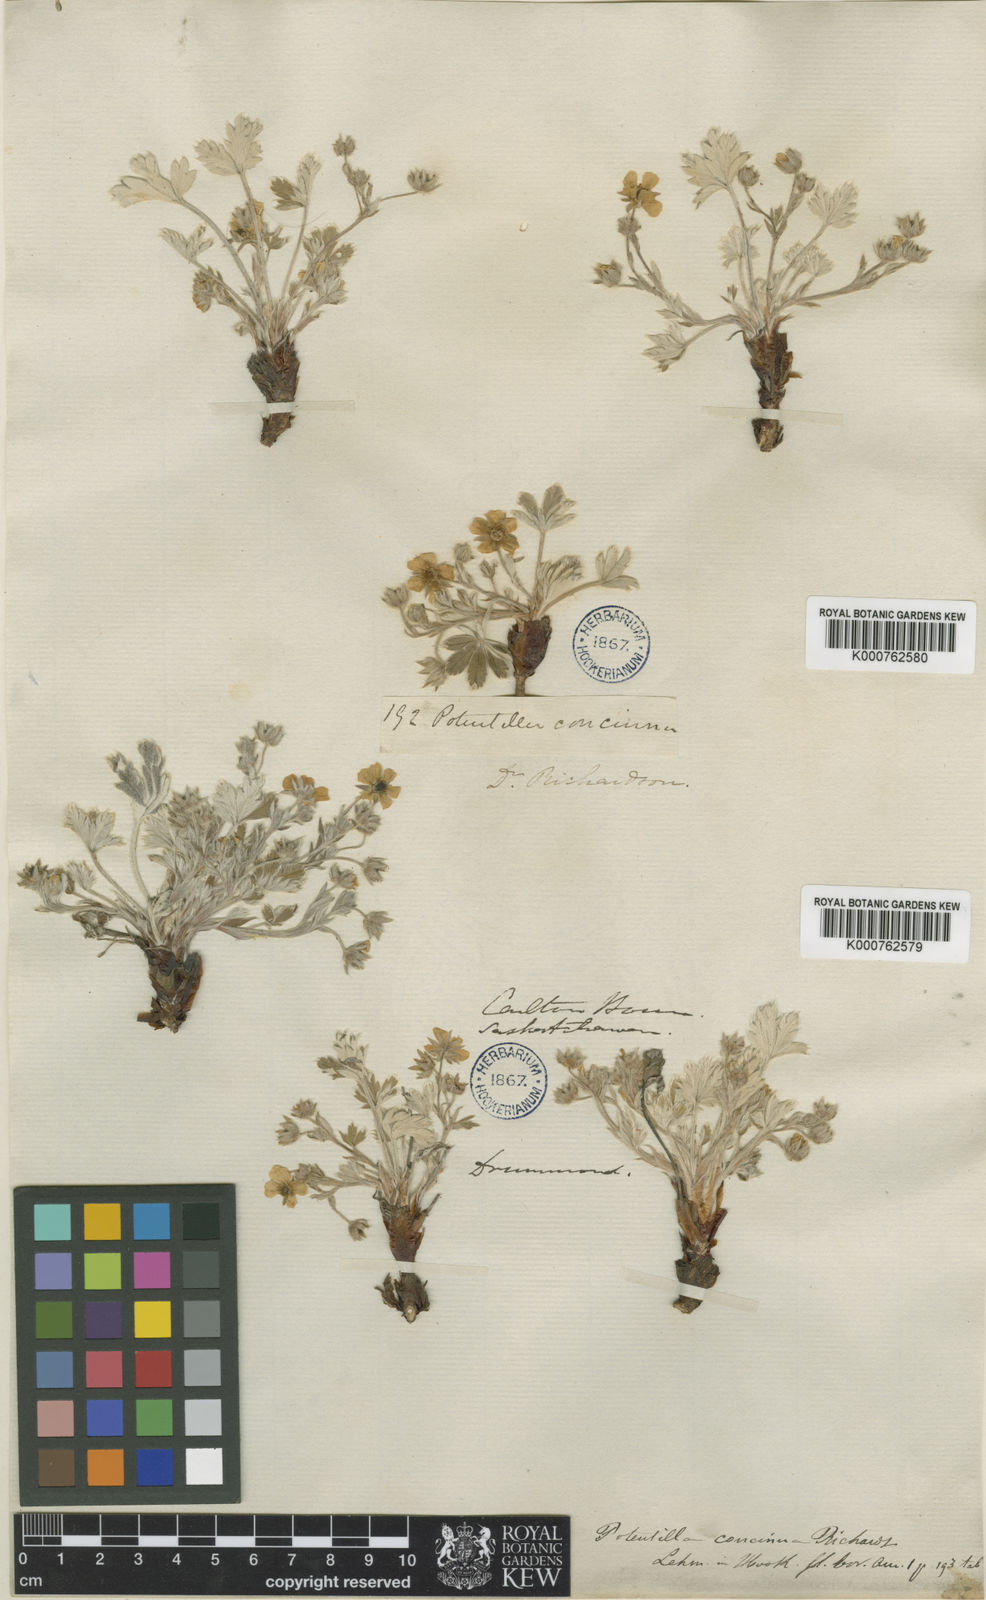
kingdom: Plantae
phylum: Tracheophyta
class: Magnoliopsida
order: Rosales
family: Rosaceae
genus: Potentilla
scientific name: Potentilla concinna
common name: Early cinquefoil
